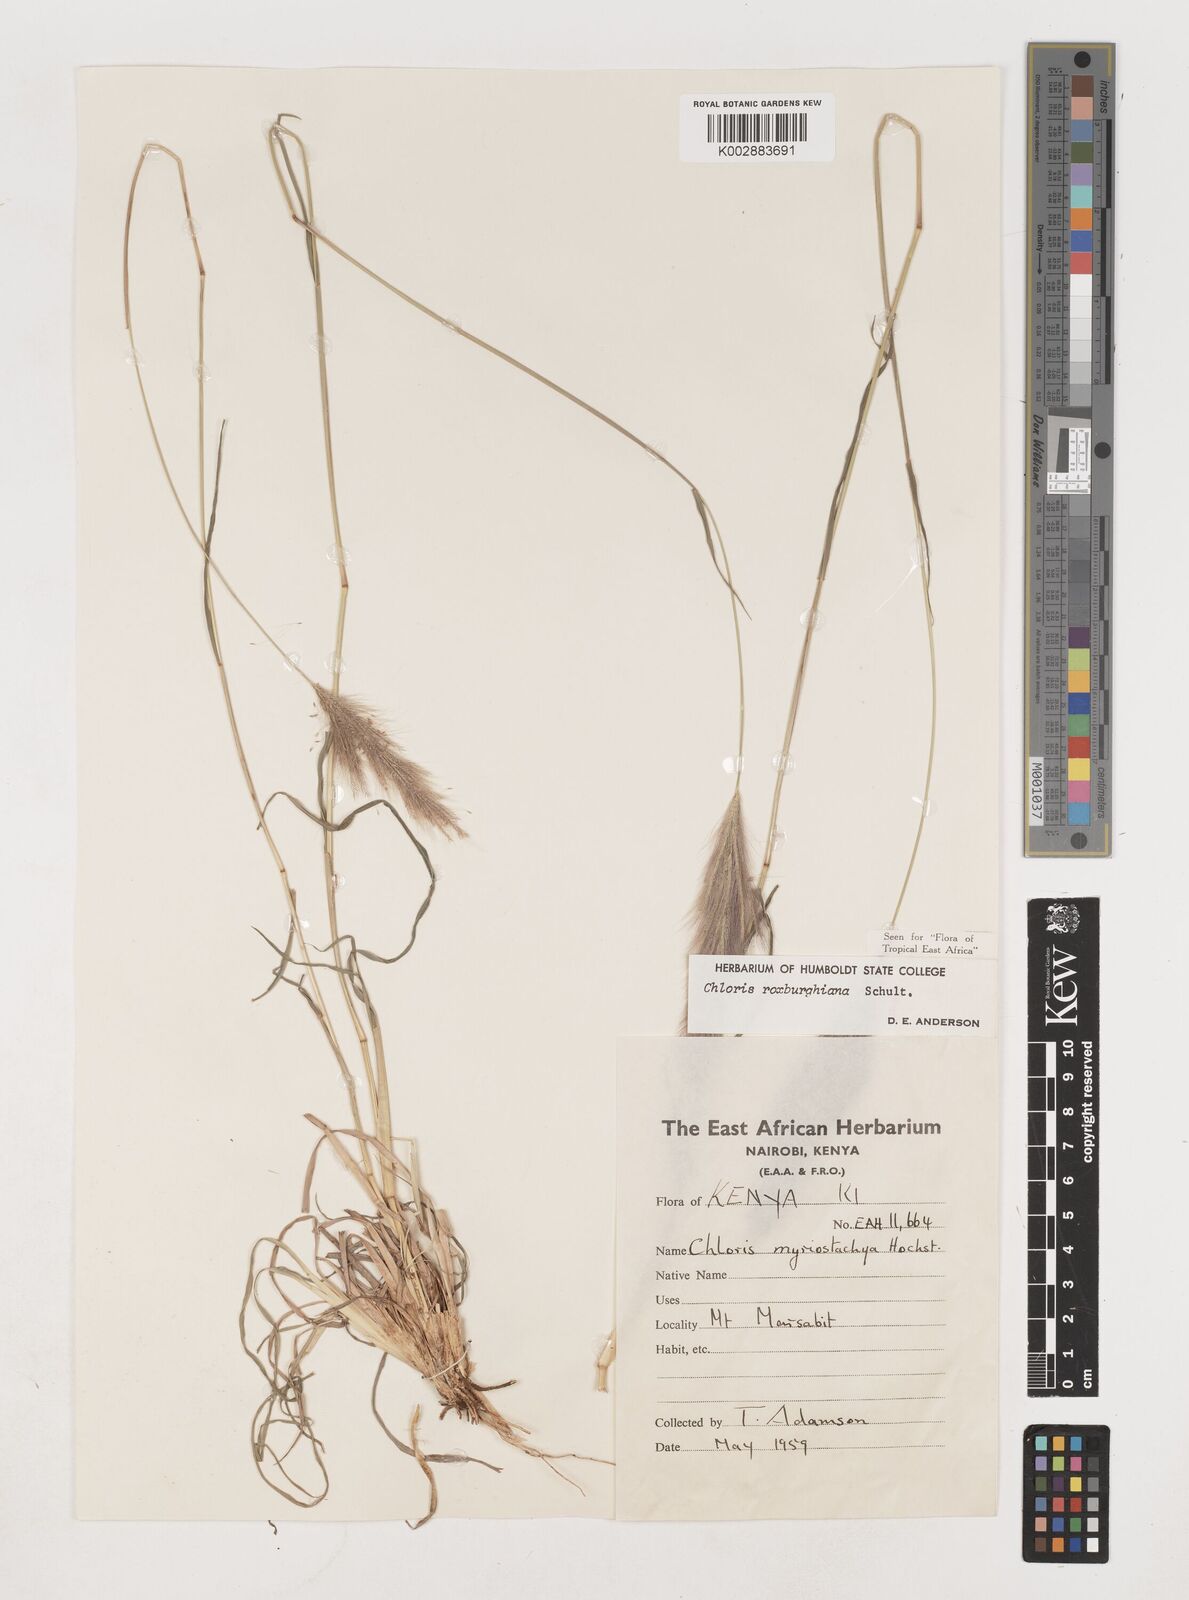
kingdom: Plantae
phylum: Tracheophyta
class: Liliopsida
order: Poales
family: Poaceae
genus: Tetrapogon
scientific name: Tetrapogon roxburghiana
